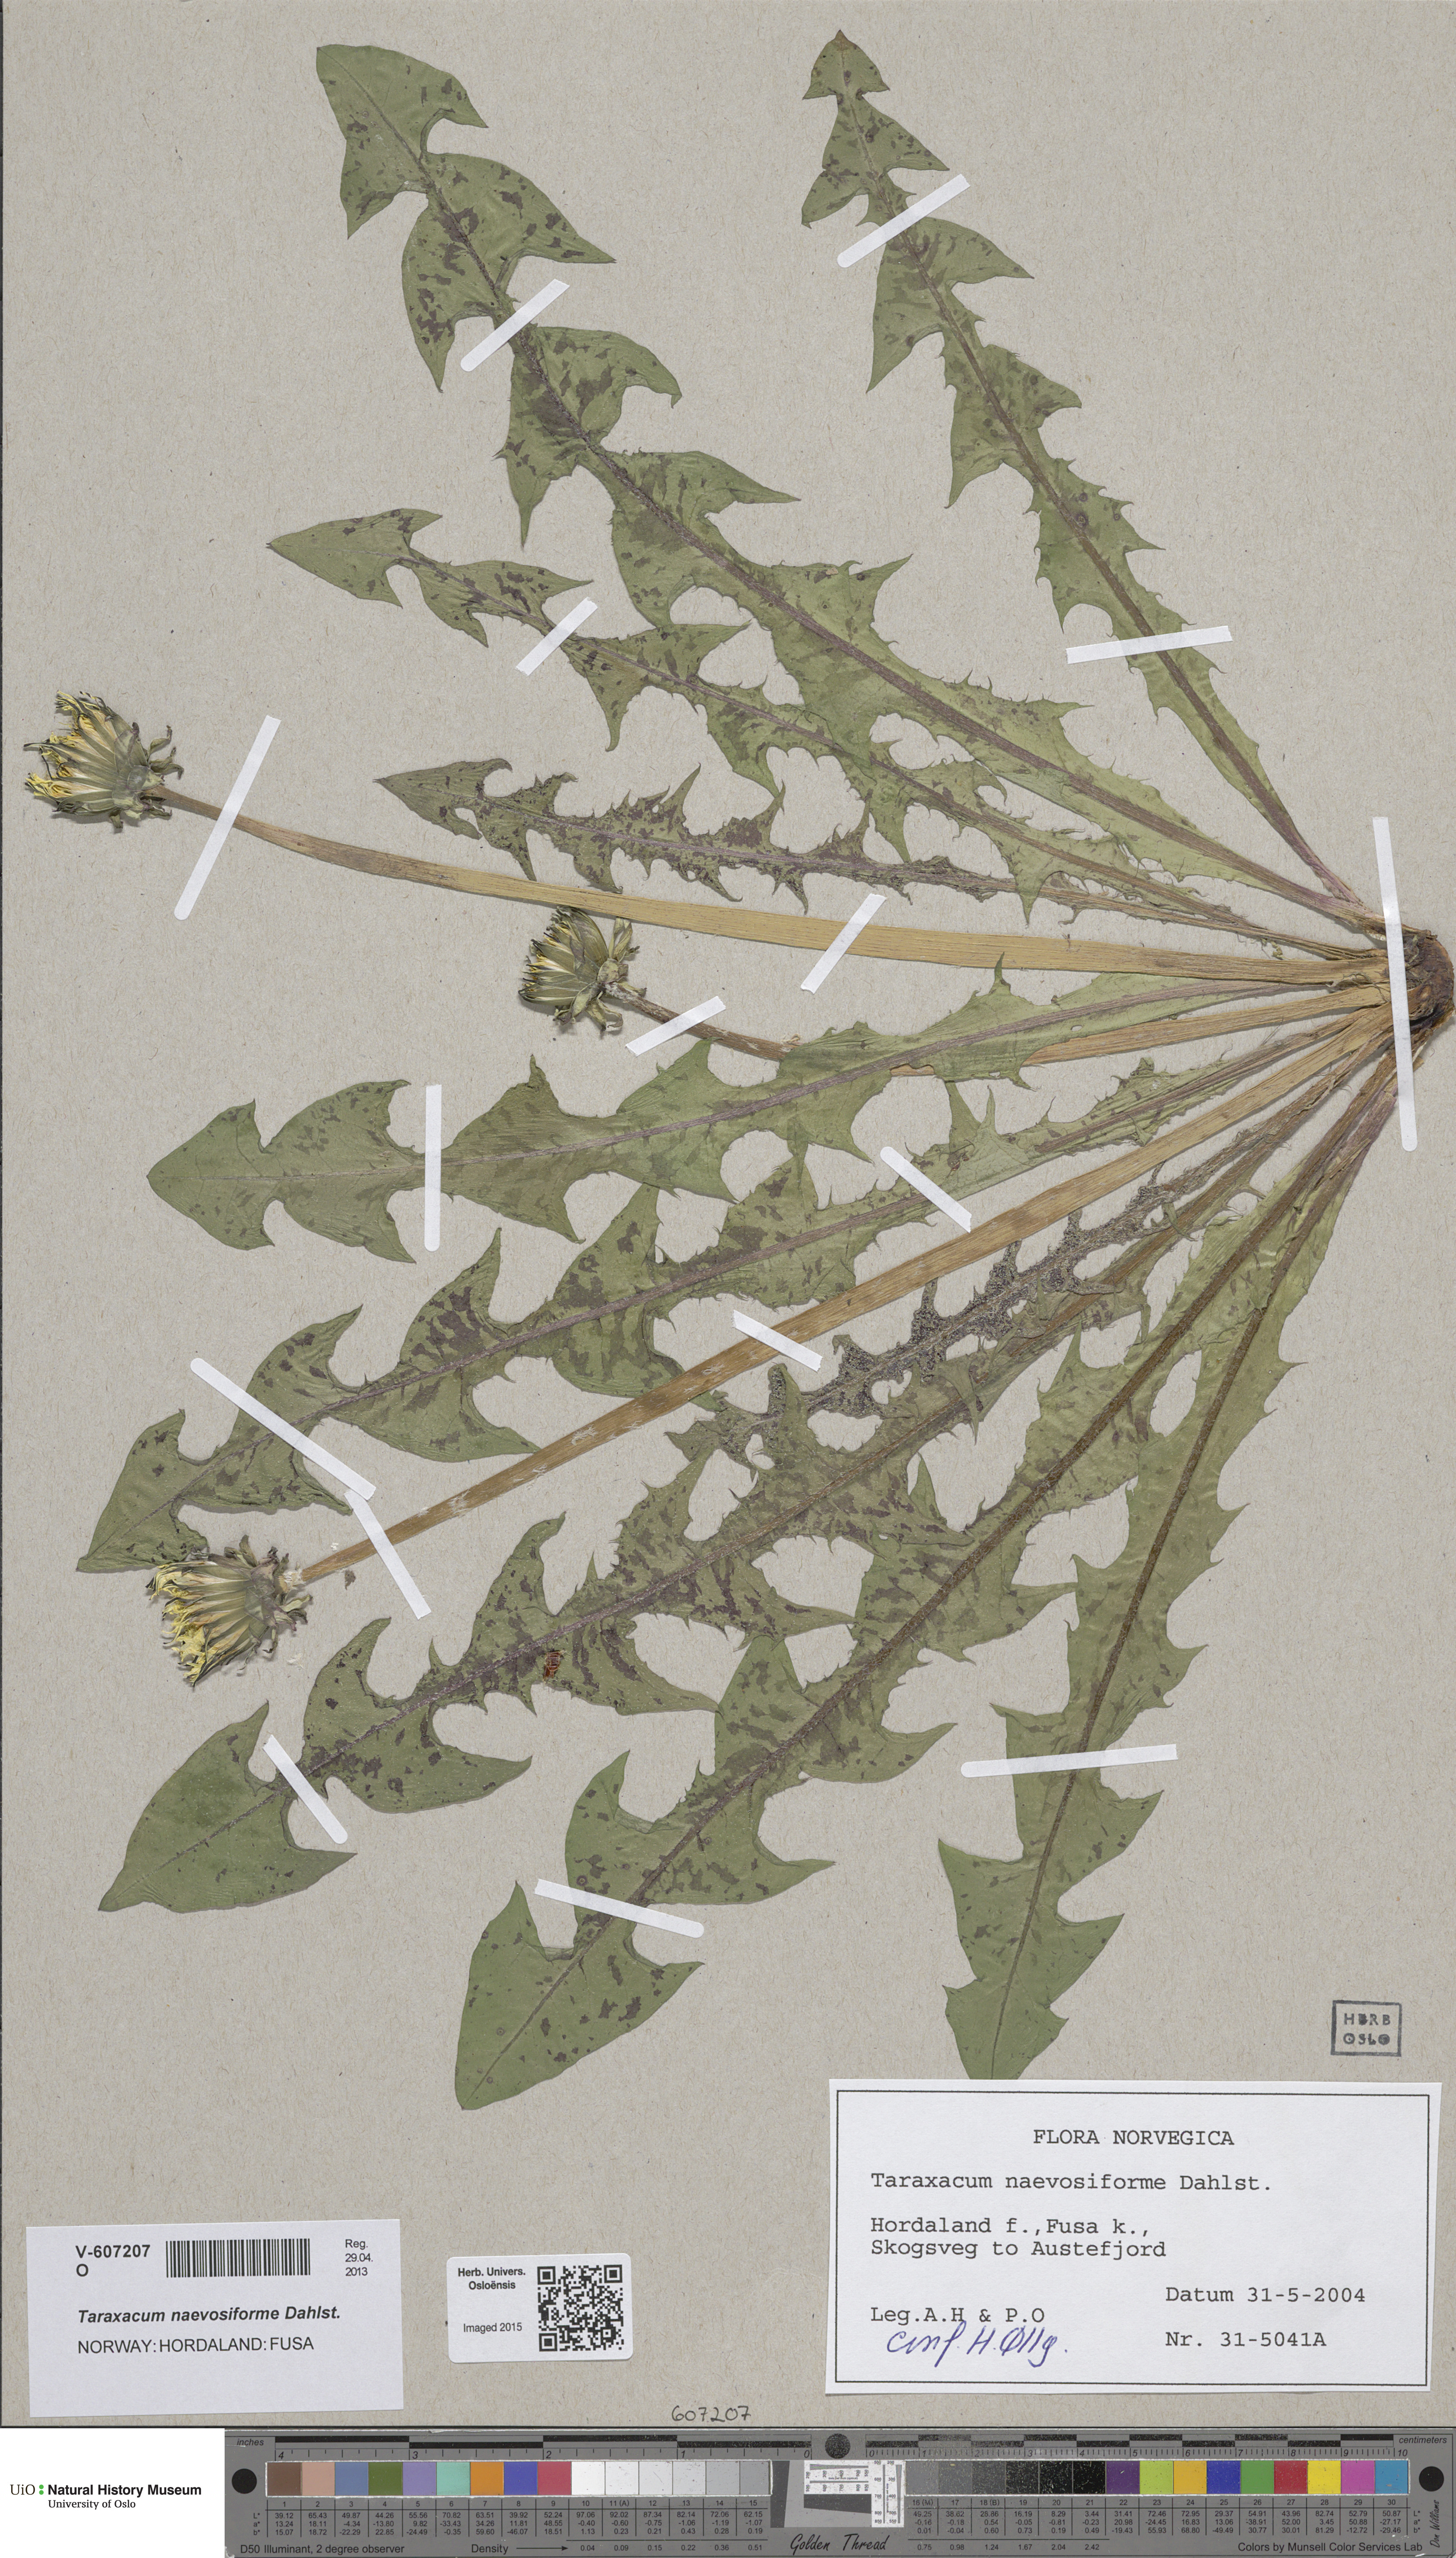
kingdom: Plantae
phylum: Tracheophyta
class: Magnoliopsida
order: Asterales
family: Asteraceae
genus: Taraxacum
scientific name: Taraxacum naevosiforme
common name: Wetland dandelion
